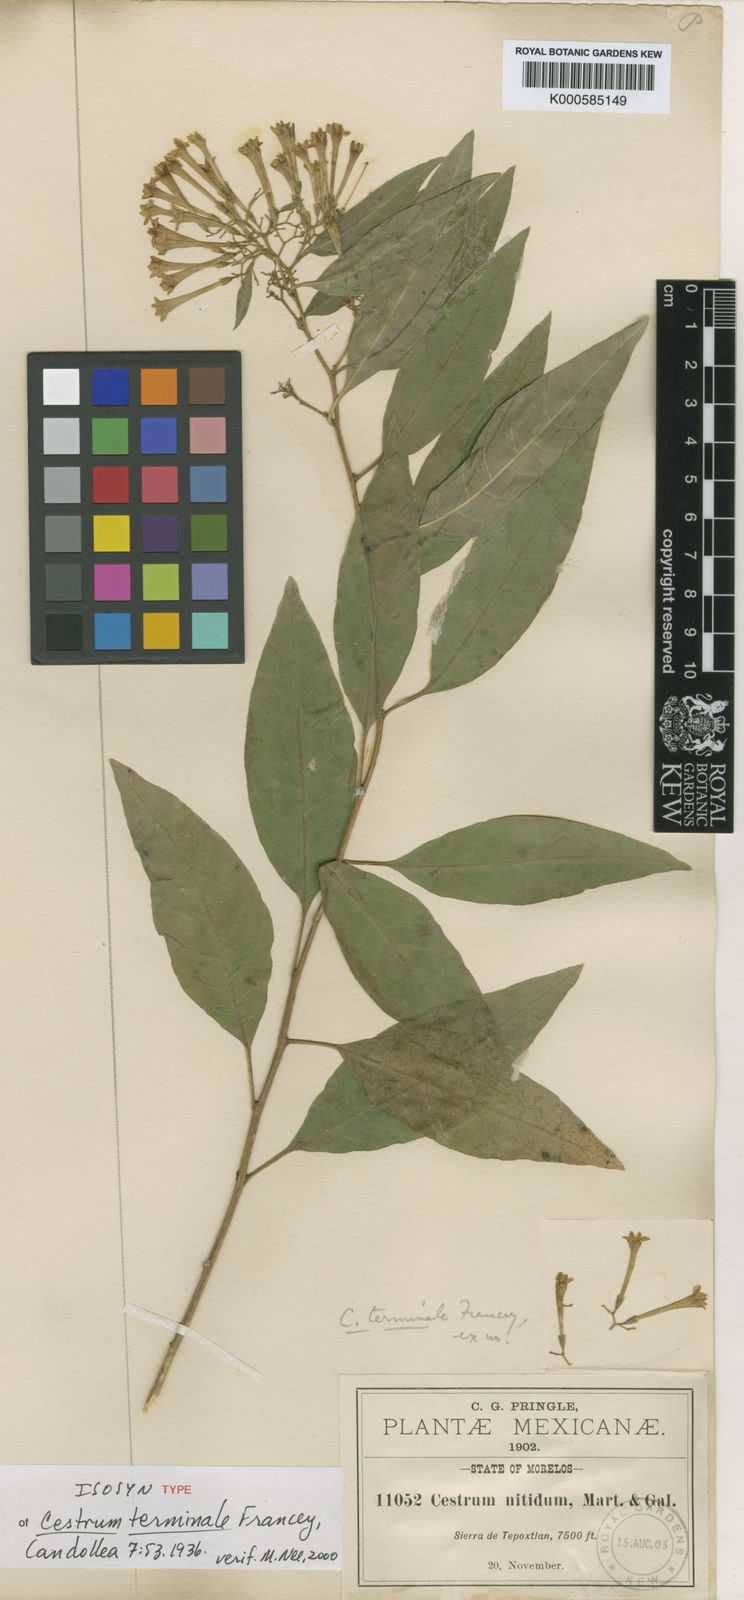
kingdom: Plantae
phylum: Tracheophyta
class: Magnoliopsida
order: Solanales
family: Solanaceae
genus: Cestrum
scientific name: Cestrum thyrsoideum
